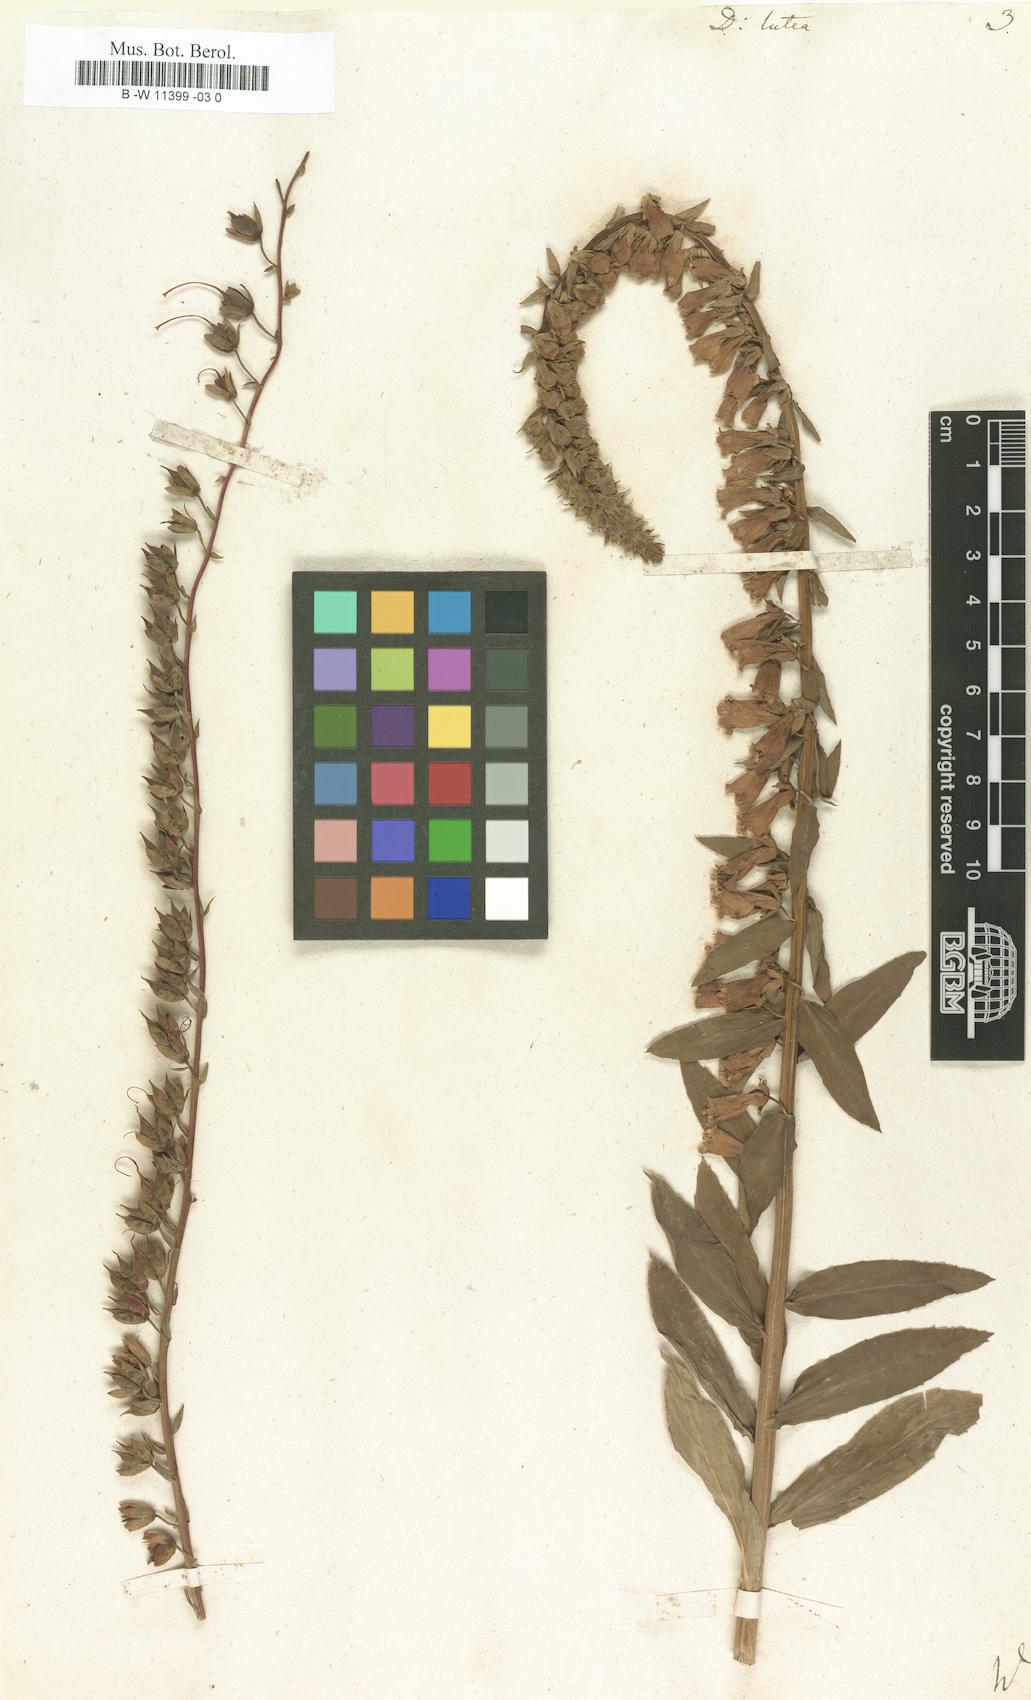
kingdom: Plantae
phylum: Tracheophyta
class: Magnoliopsida
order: Lamiales
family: Plantaginaceae
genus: Digitalis
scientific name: Digitalis lutea
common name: Straw foxglove
